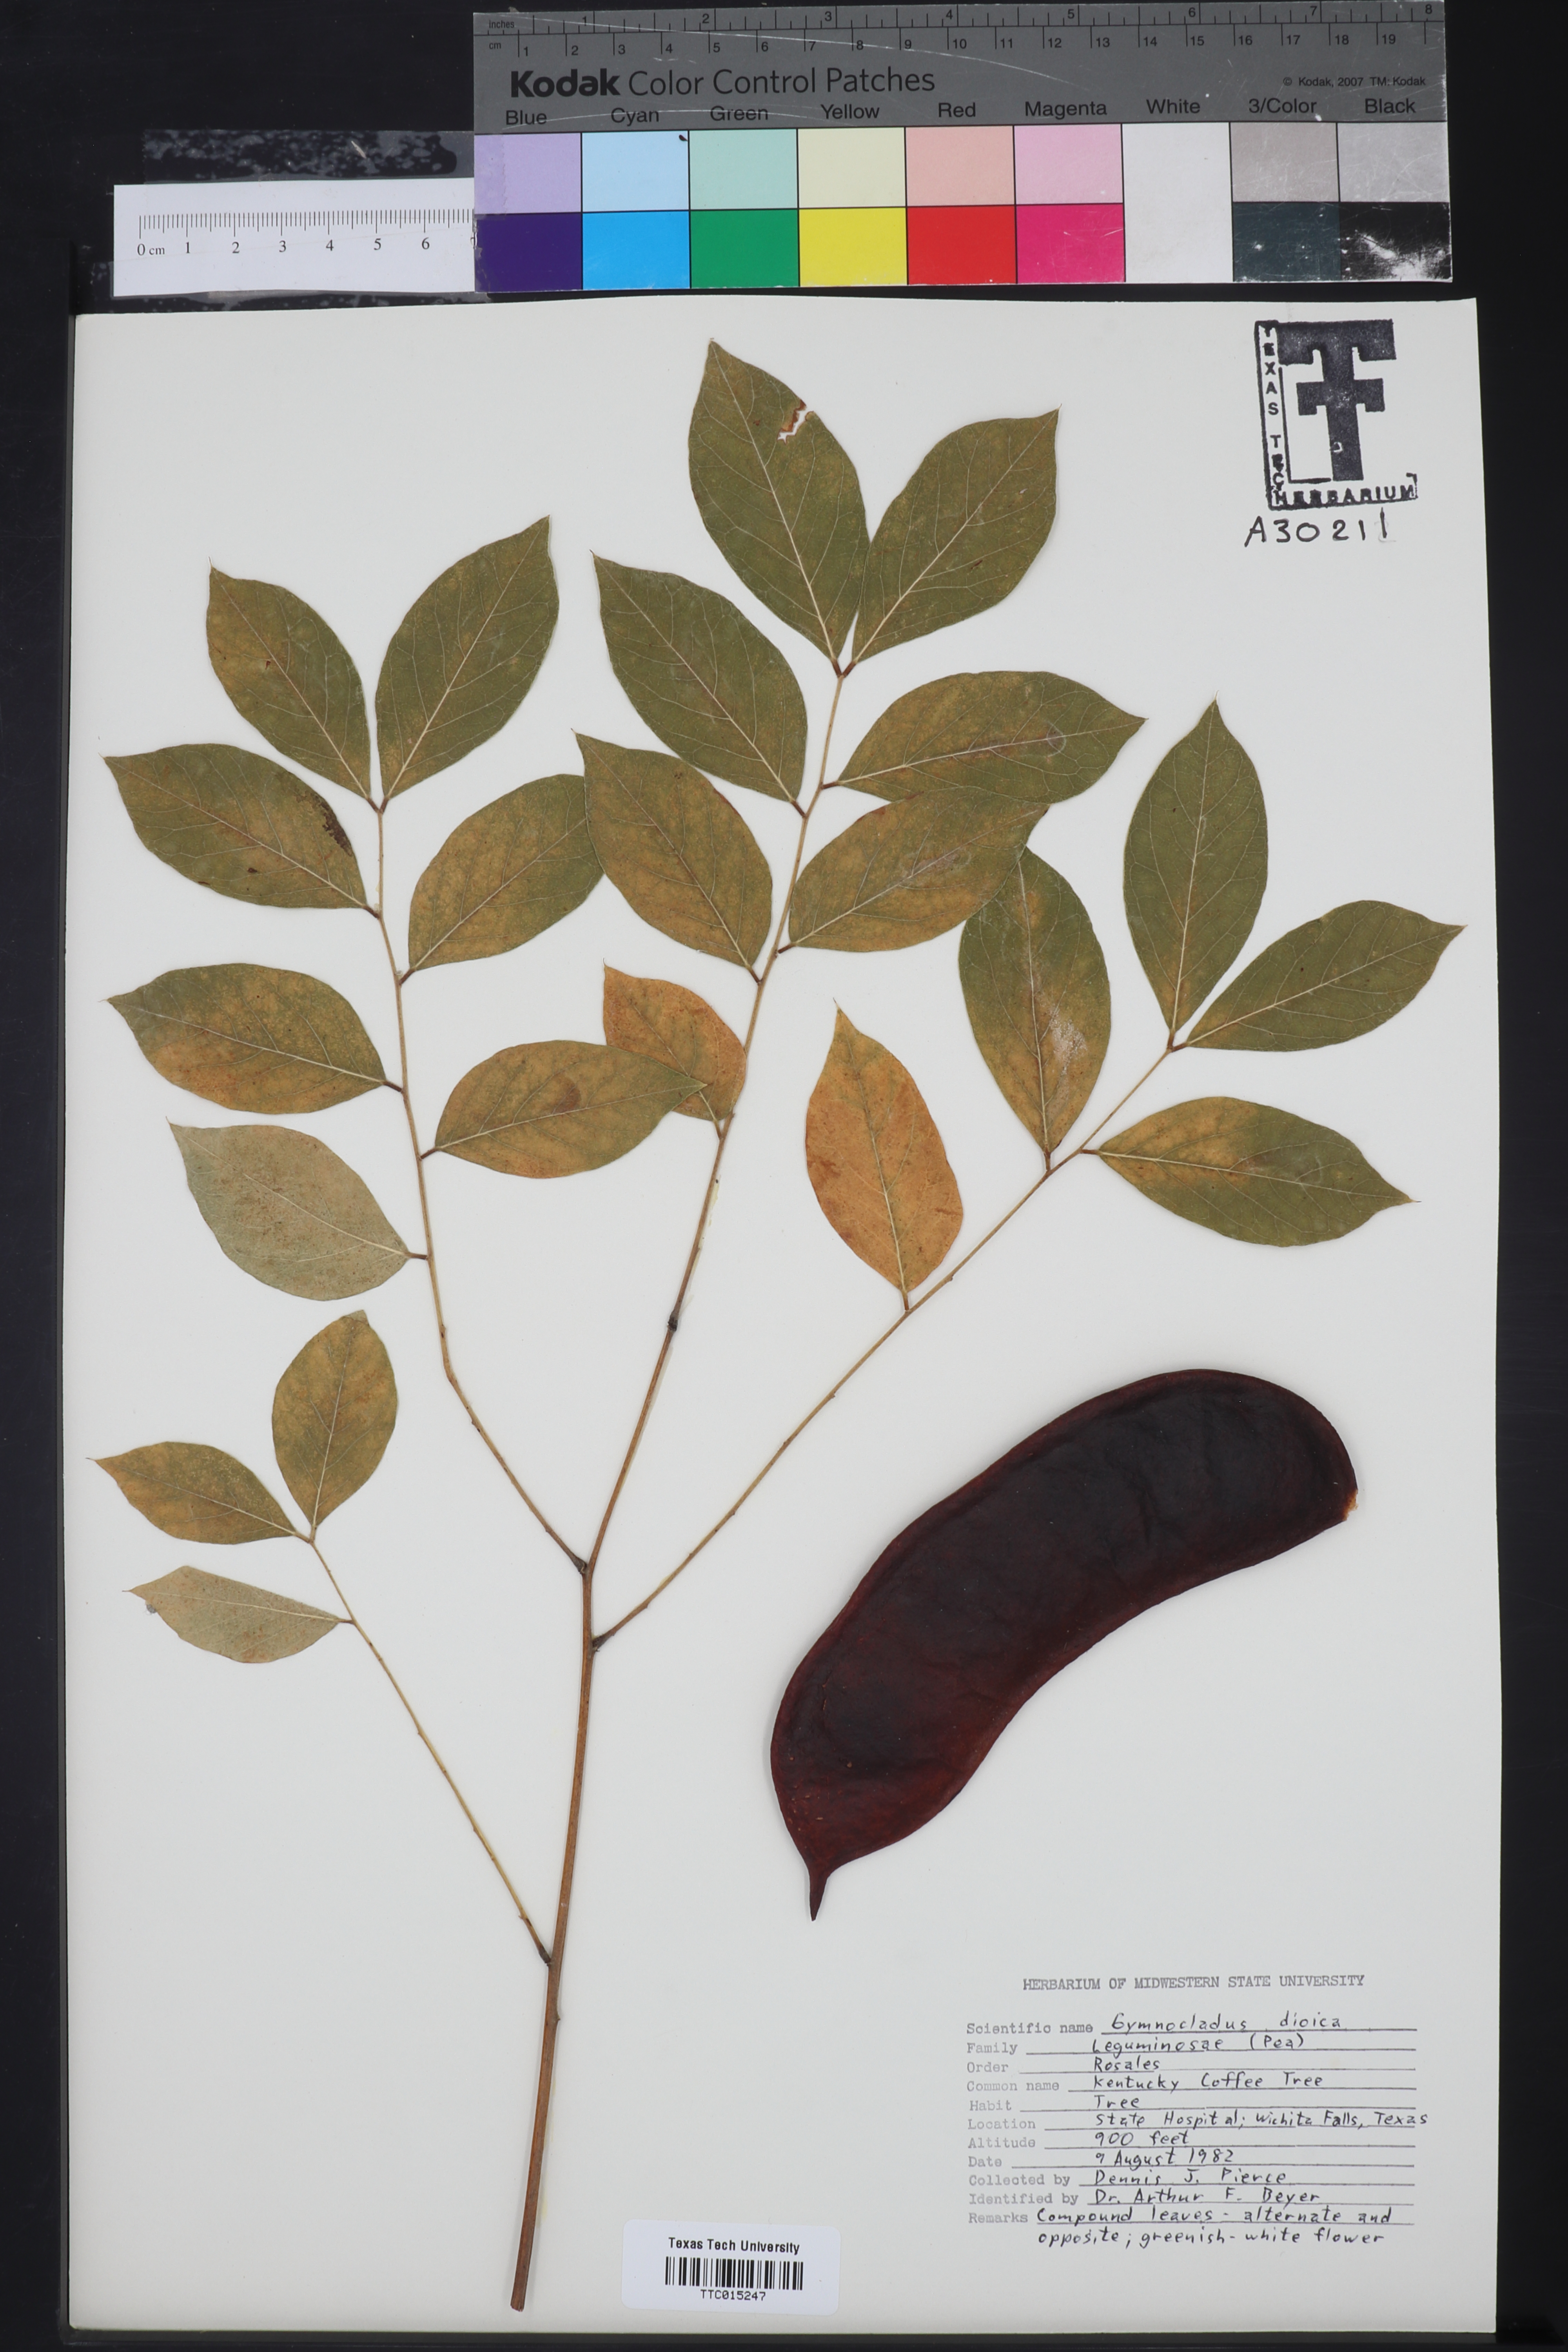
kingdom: Plantae
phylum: Tracheophyta
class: Magnoliopsida
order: Fabales
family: Fabaceae
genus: Gymnocladus
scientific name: Gymnocladus dioicus
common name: Kentucky coffee-tree
